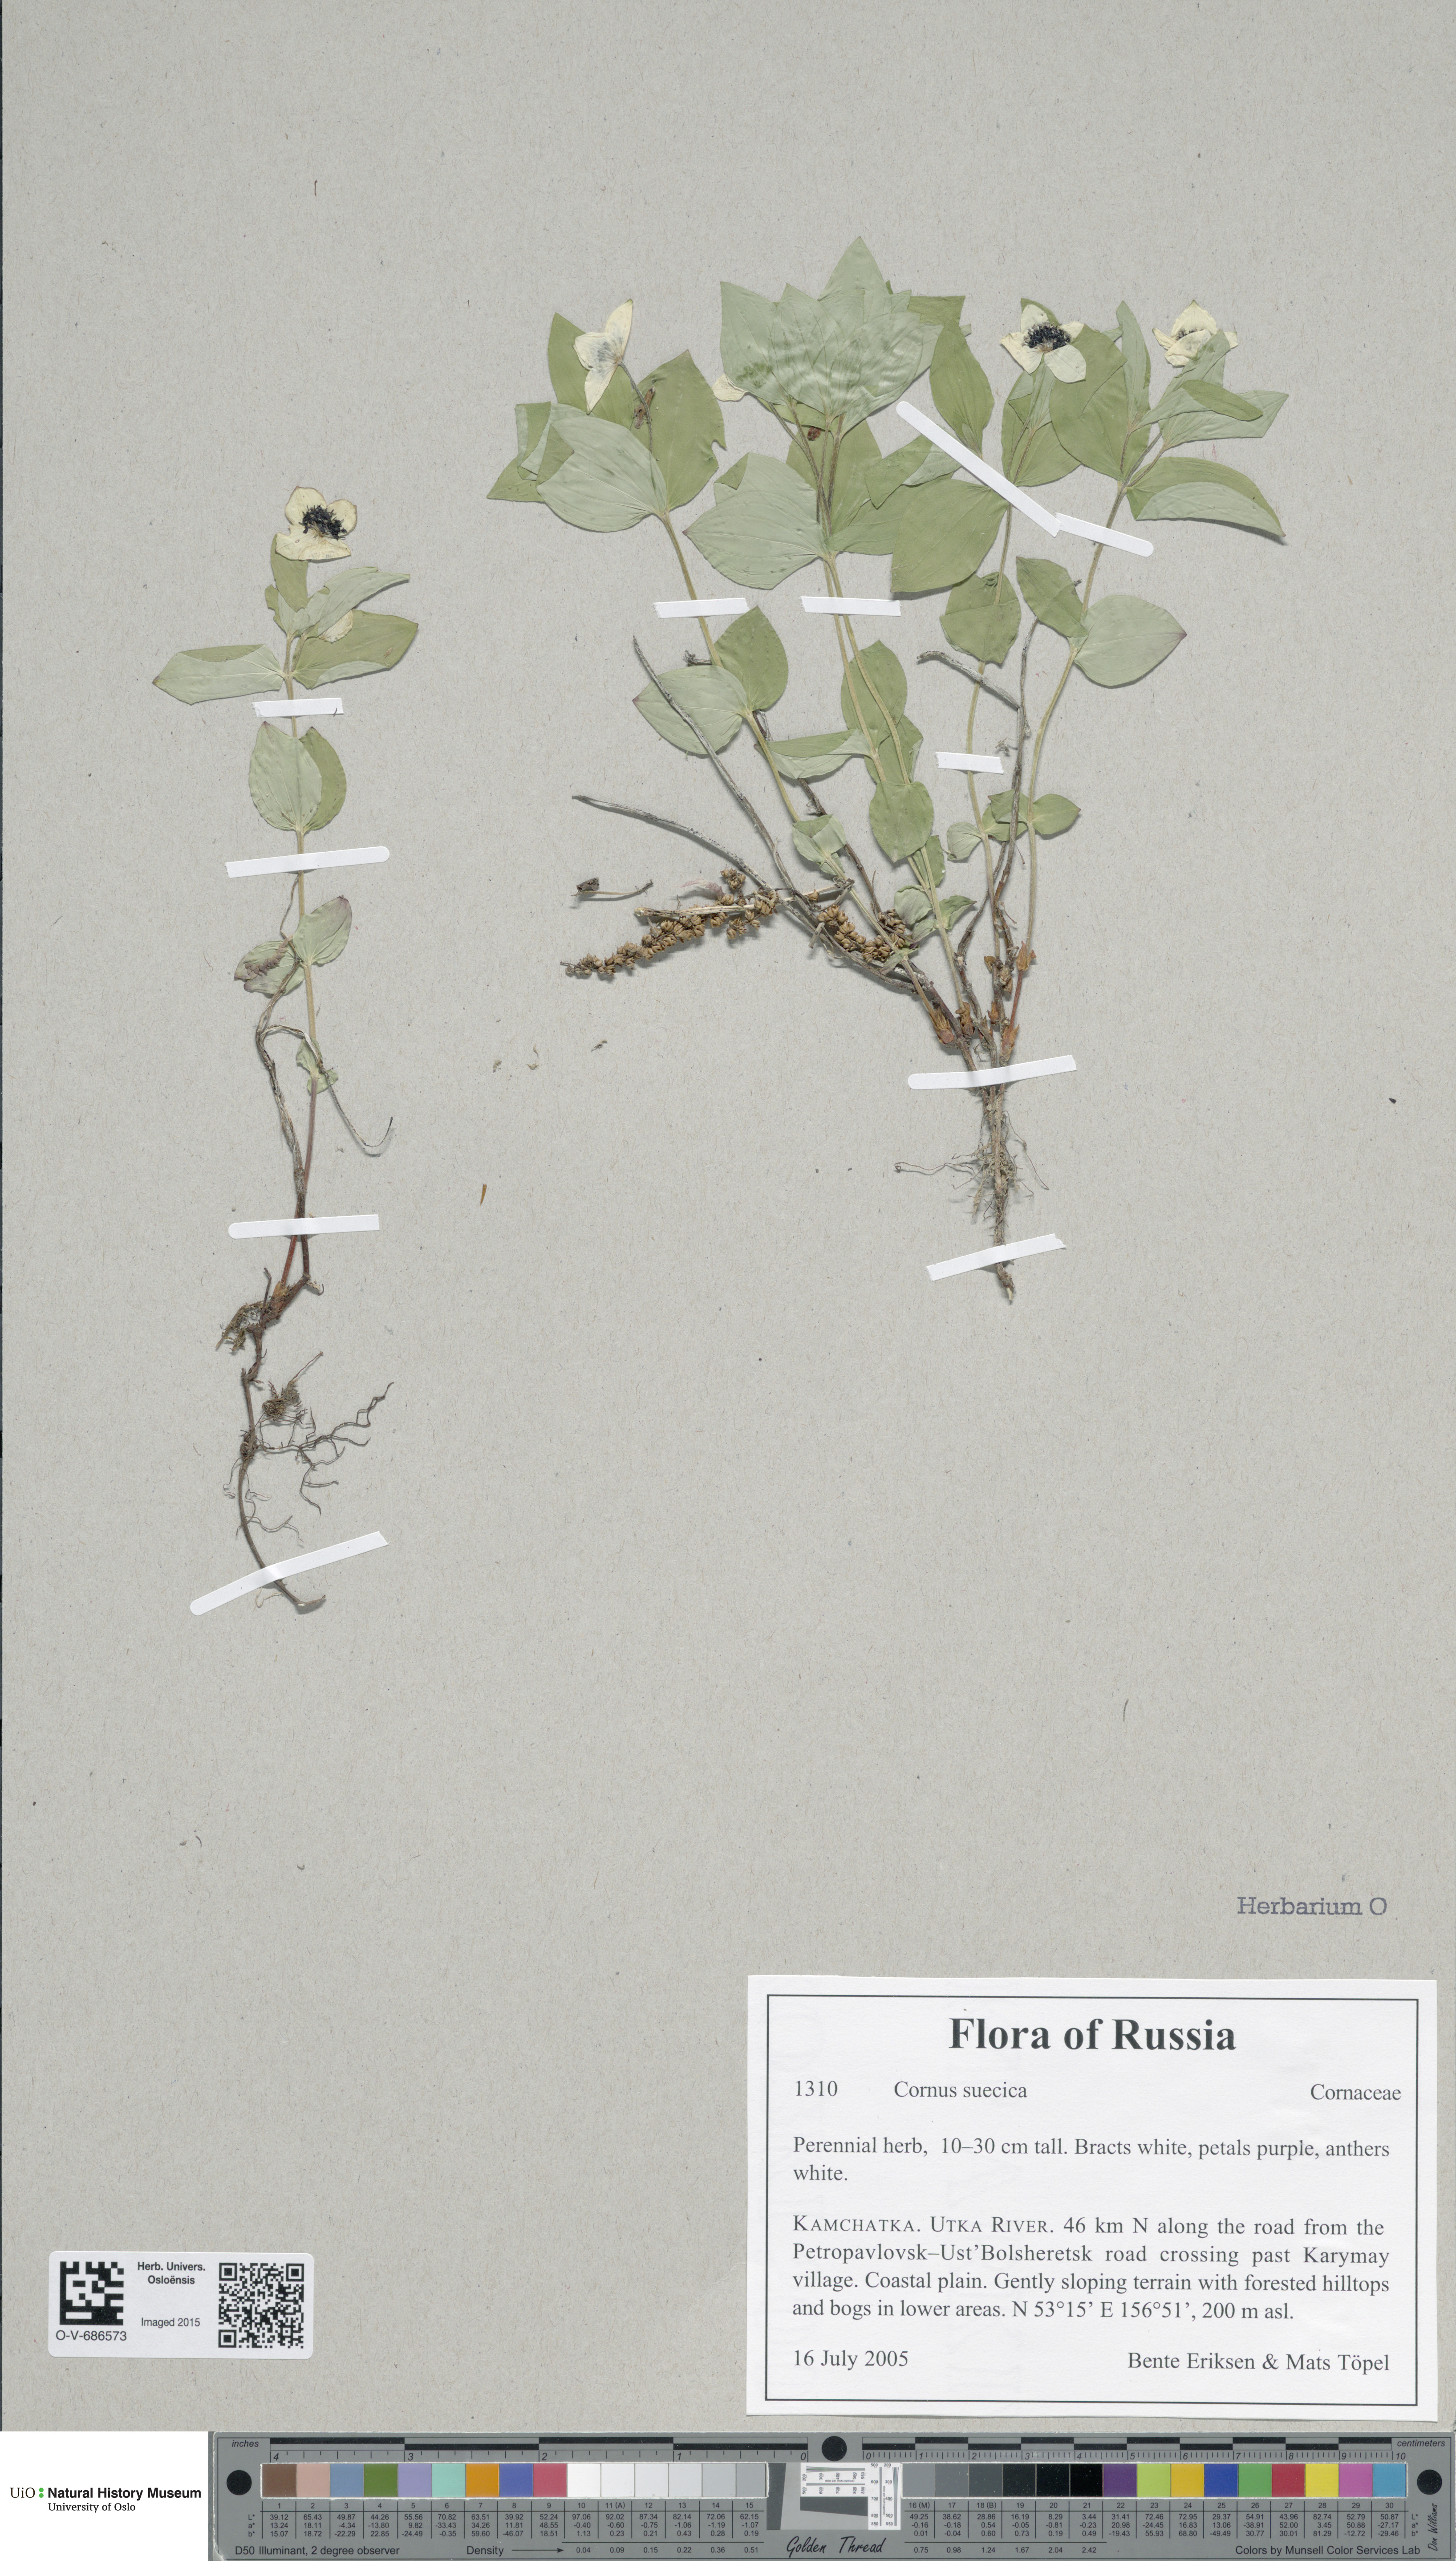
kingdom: Plantae
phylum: Tracheophyta
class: Magnoliopsida
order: Cornales
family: Cornaceae
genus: Cornus
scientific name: Cornus suecica
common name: Dwarf cornel
